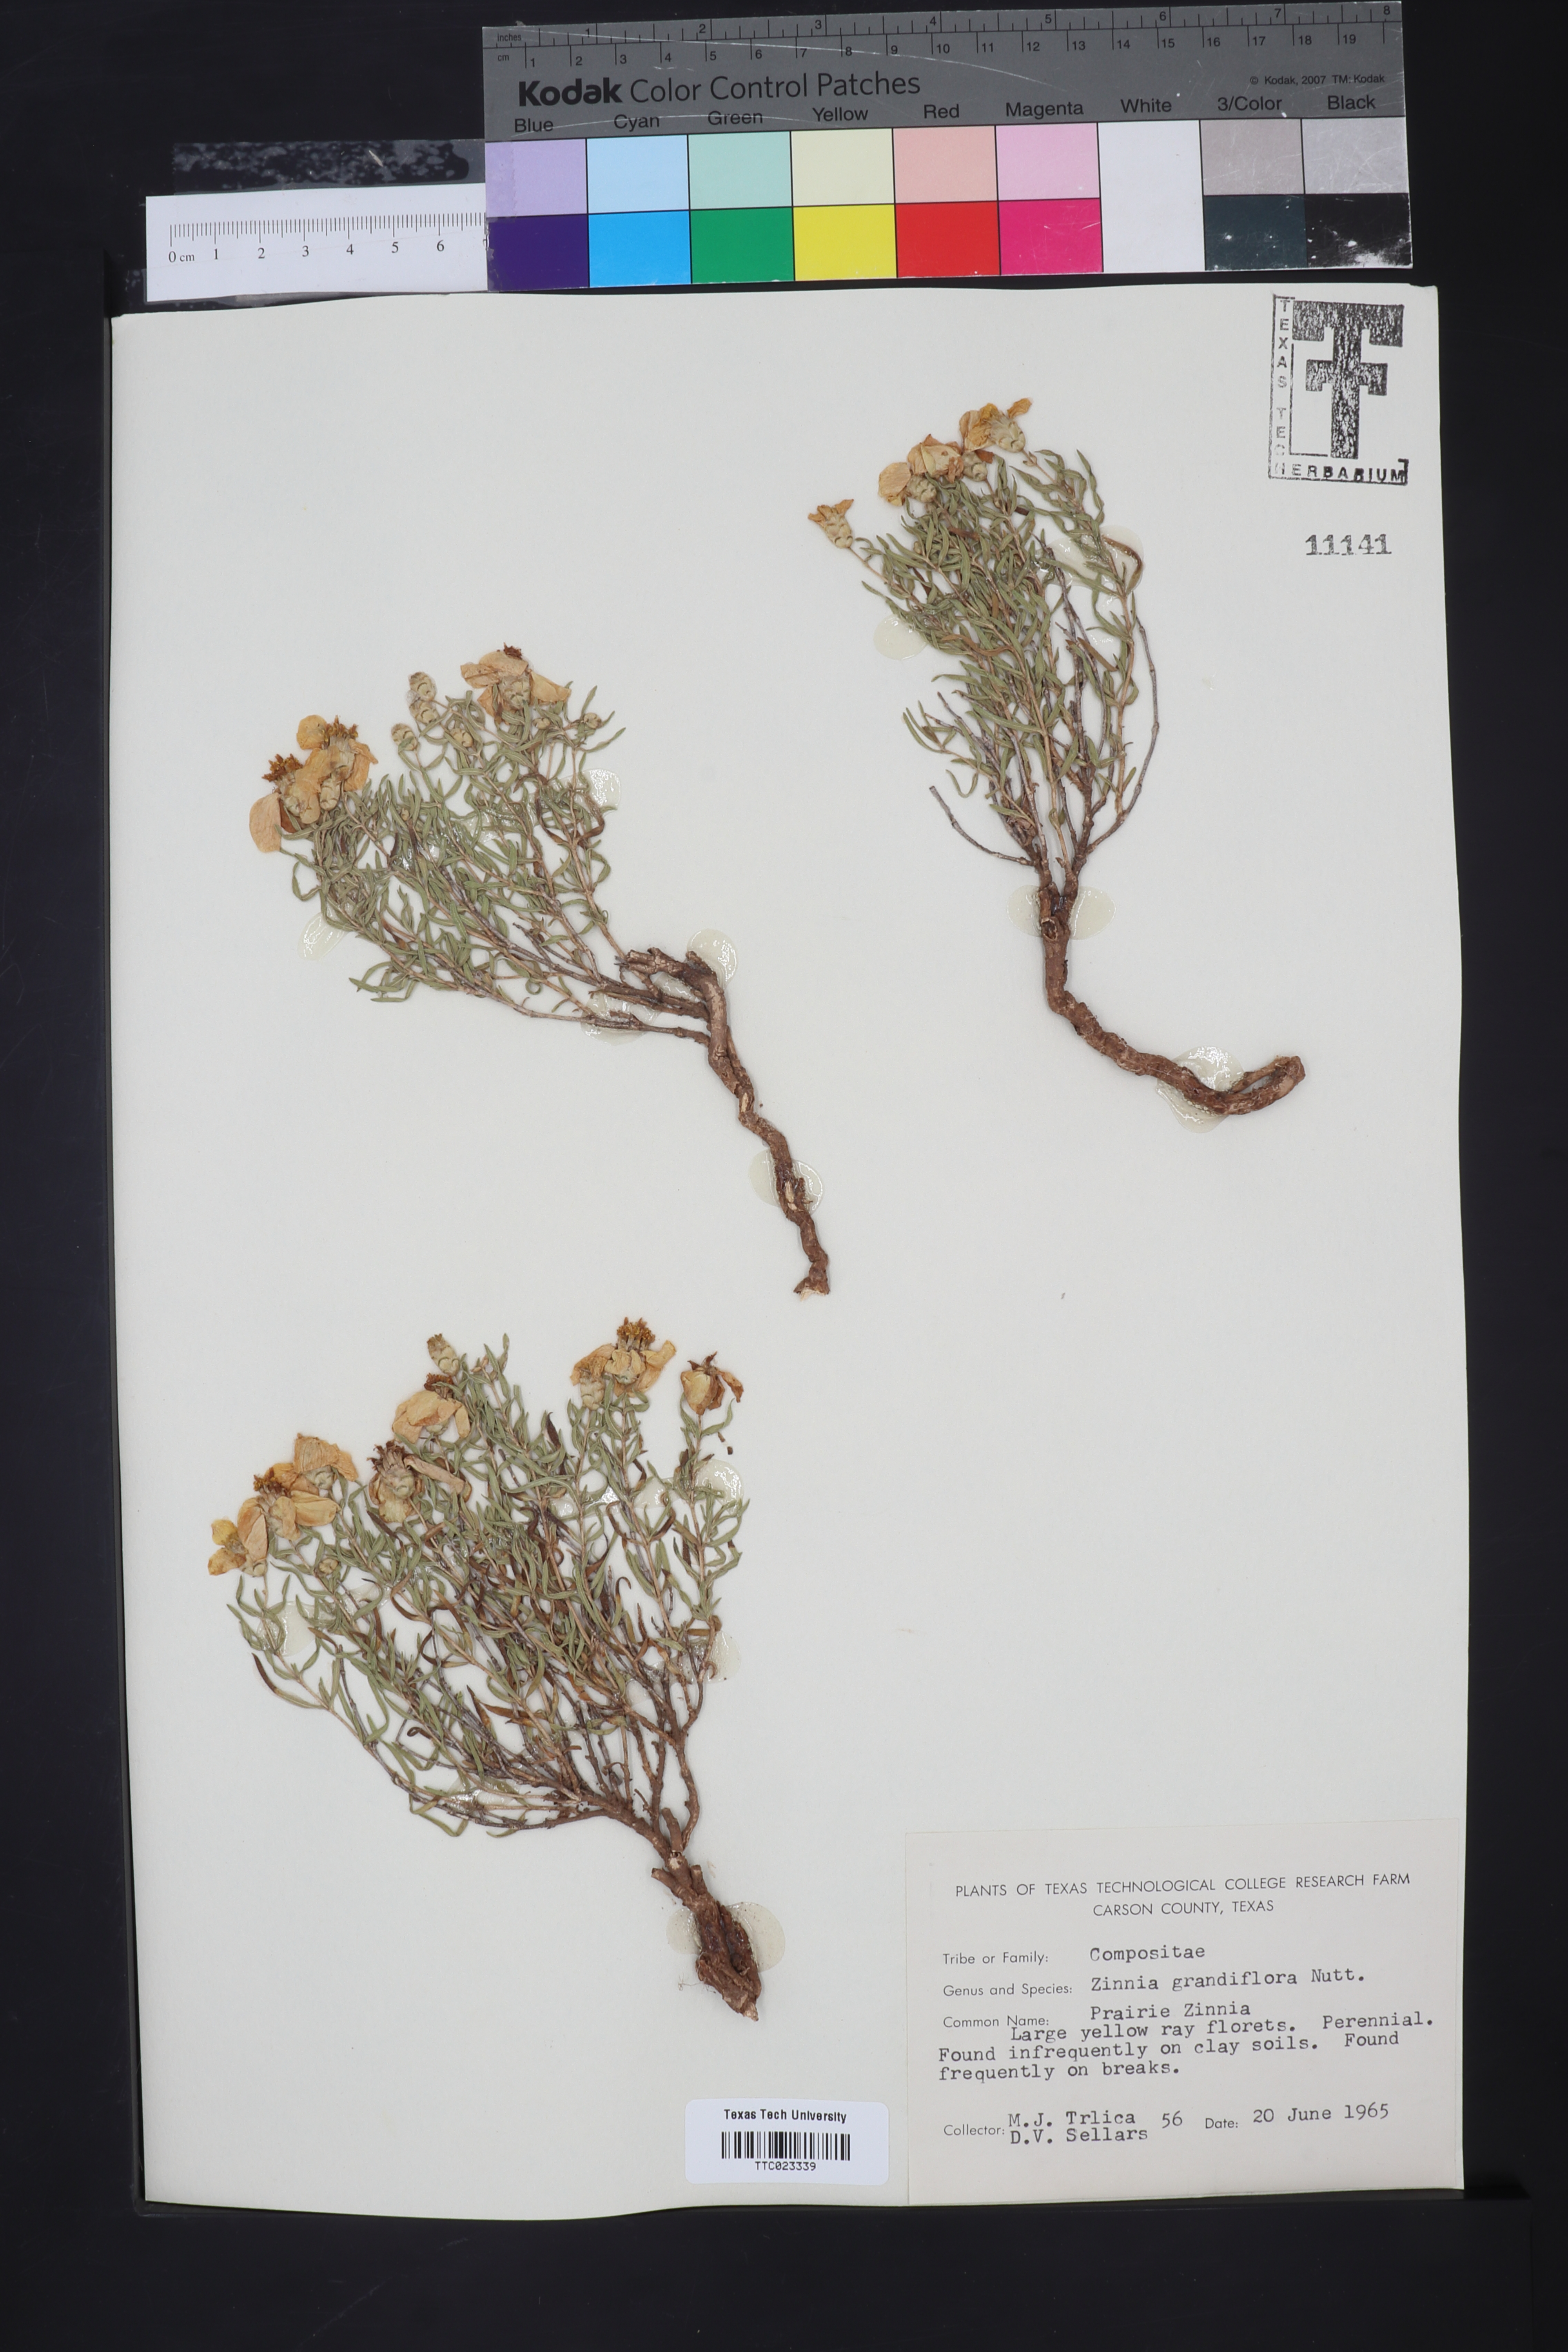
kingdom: Plantae
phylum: Tracheophyta
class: Magnoliopsida
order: Asterales
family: Asteraceae
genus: Zinnia
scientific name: Zinnia grandiflora
